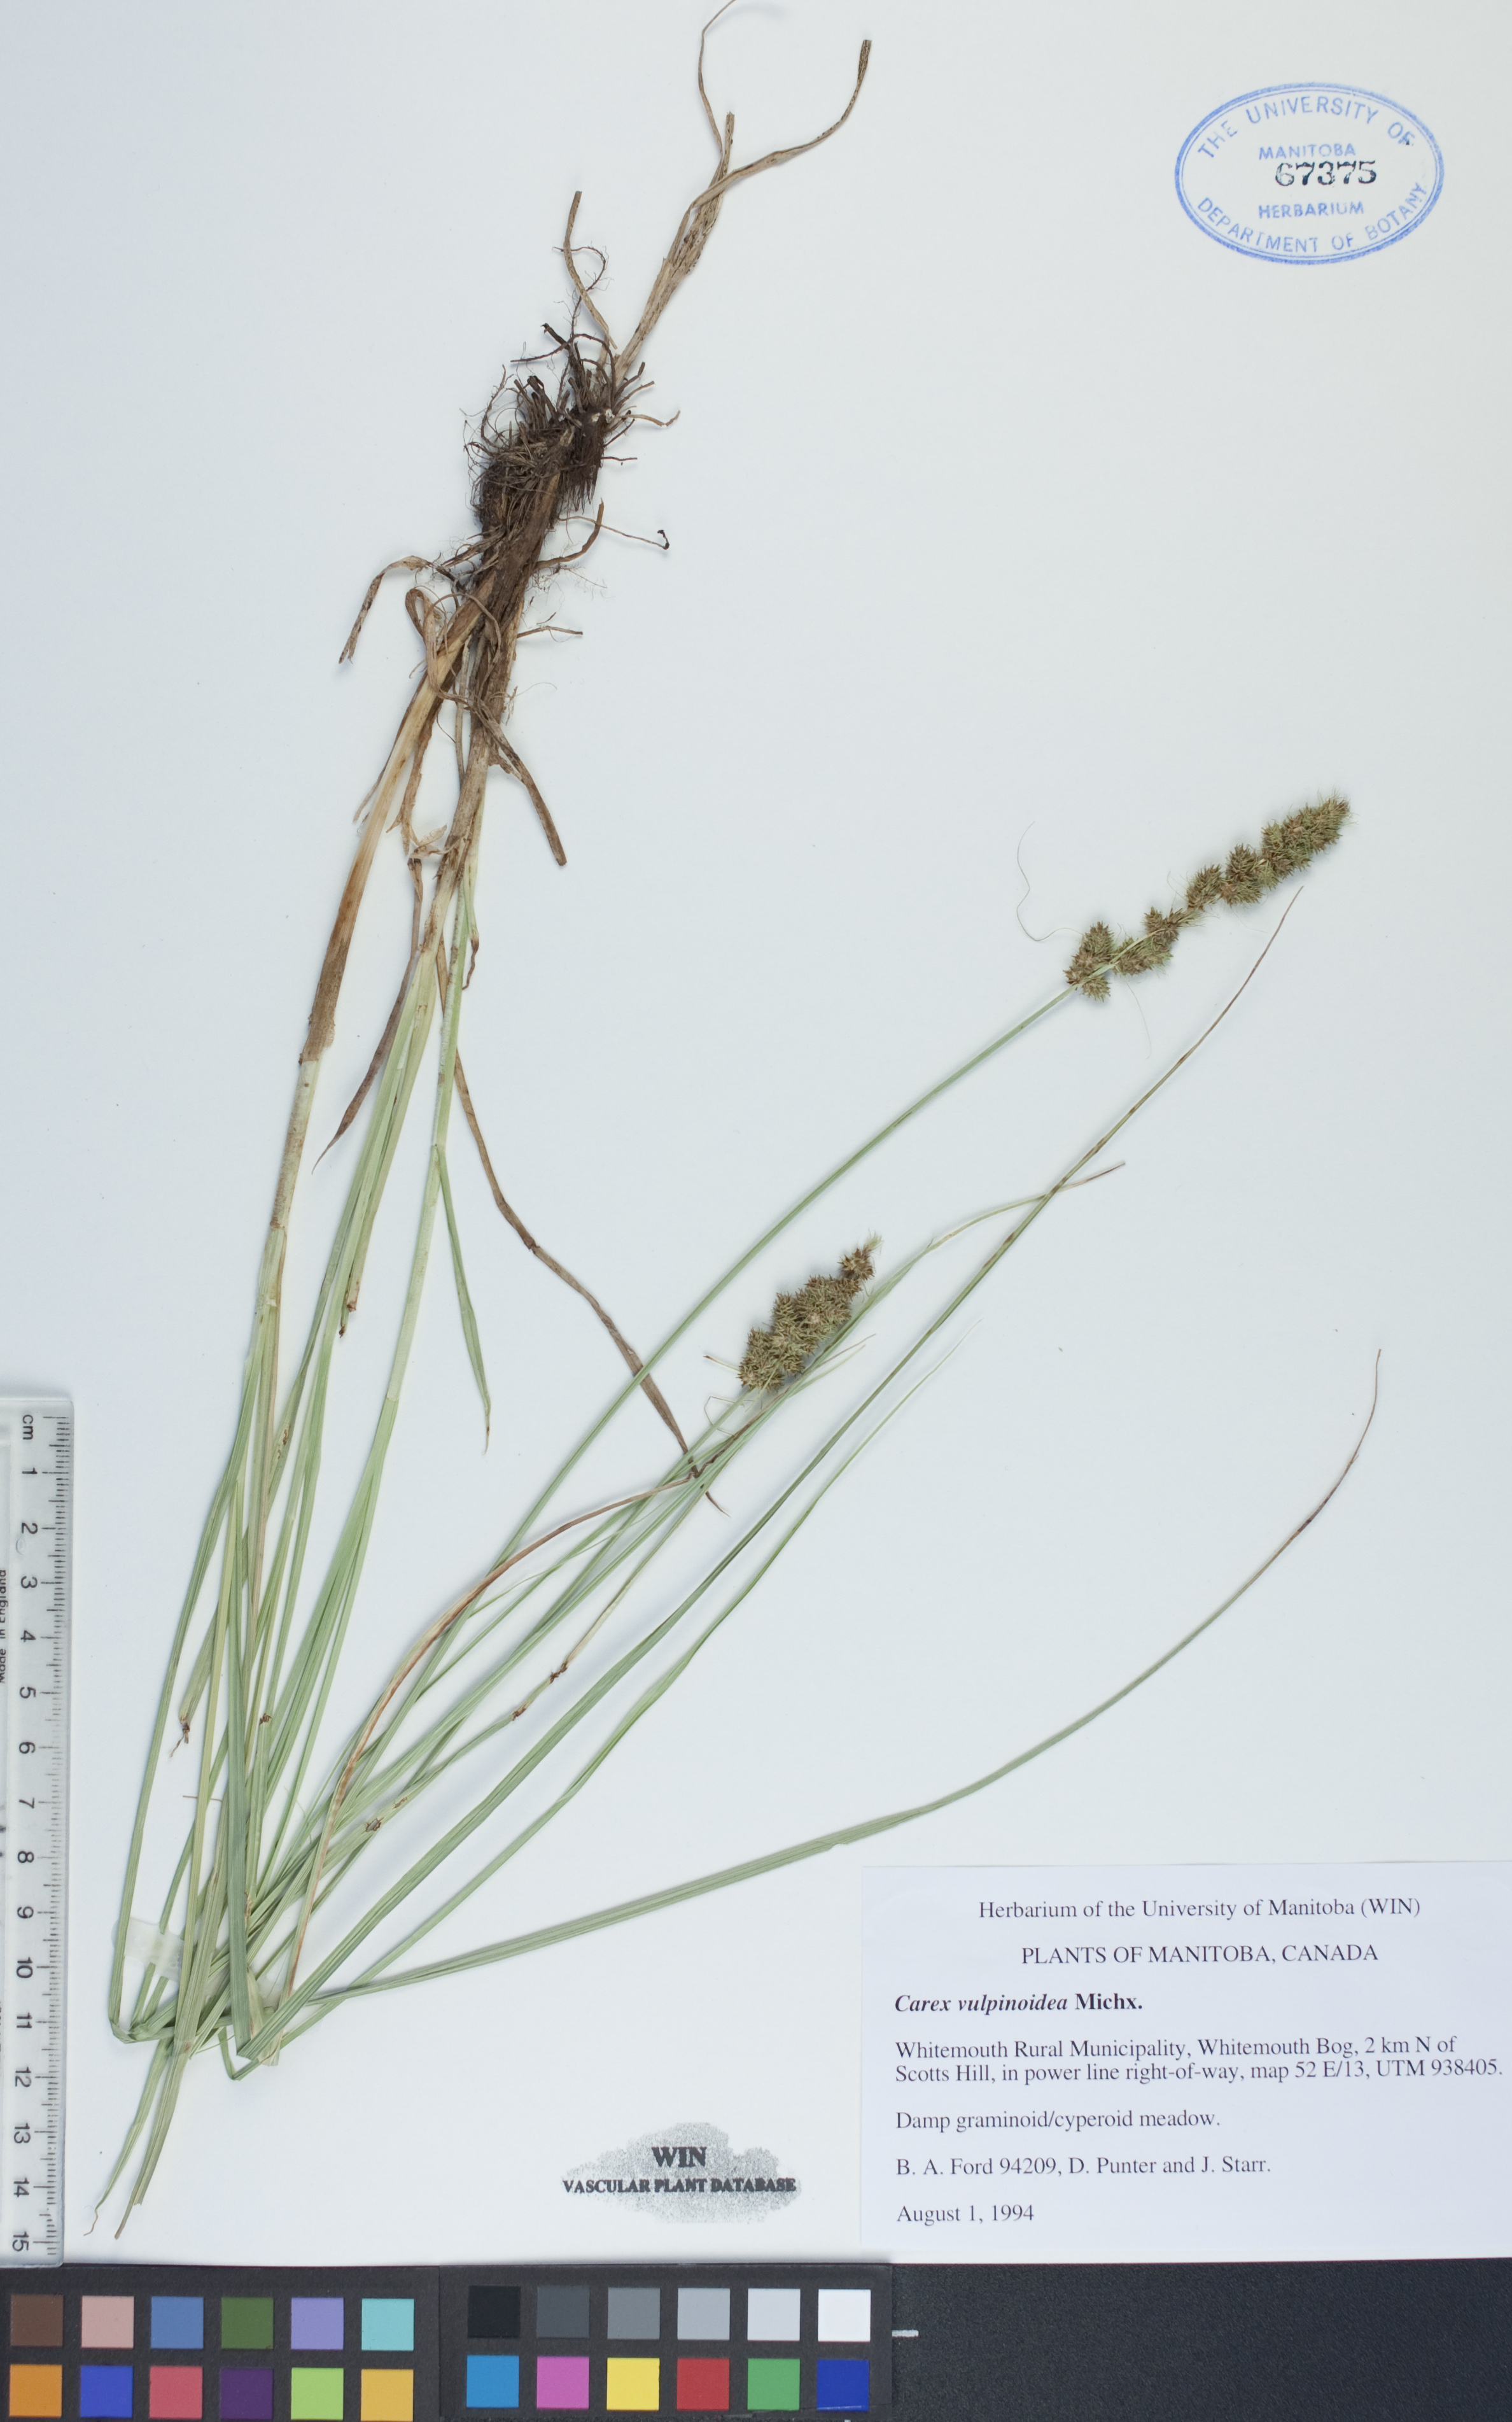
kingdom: Plantae
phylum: Tracheophyta
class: Liliopsida
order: Poales
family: Cyperaceae
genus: Carex
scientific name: Carex vulpinoidea
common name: American fox-sedge
